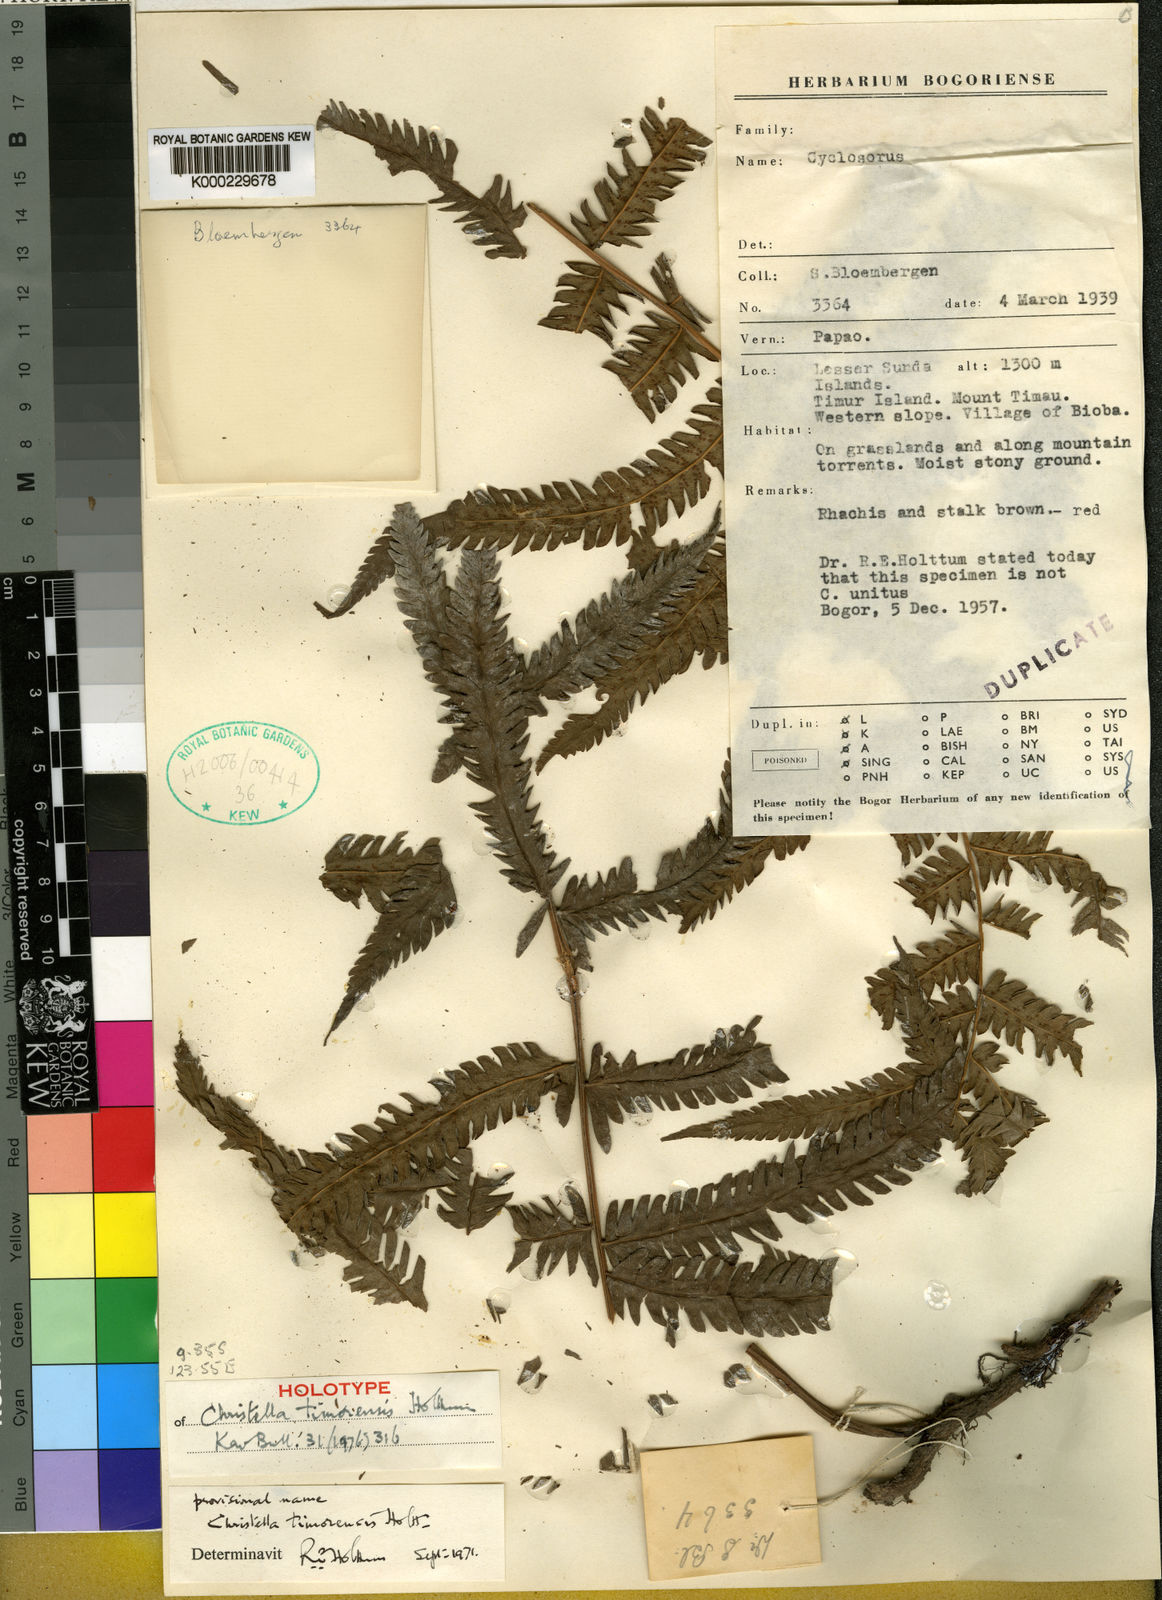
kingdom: Plantae
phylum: Tracheophyta
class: Polypodiopsida
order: Polypodiales
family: Thelypteridaceae
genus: Christella
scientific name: Christella timorensis
